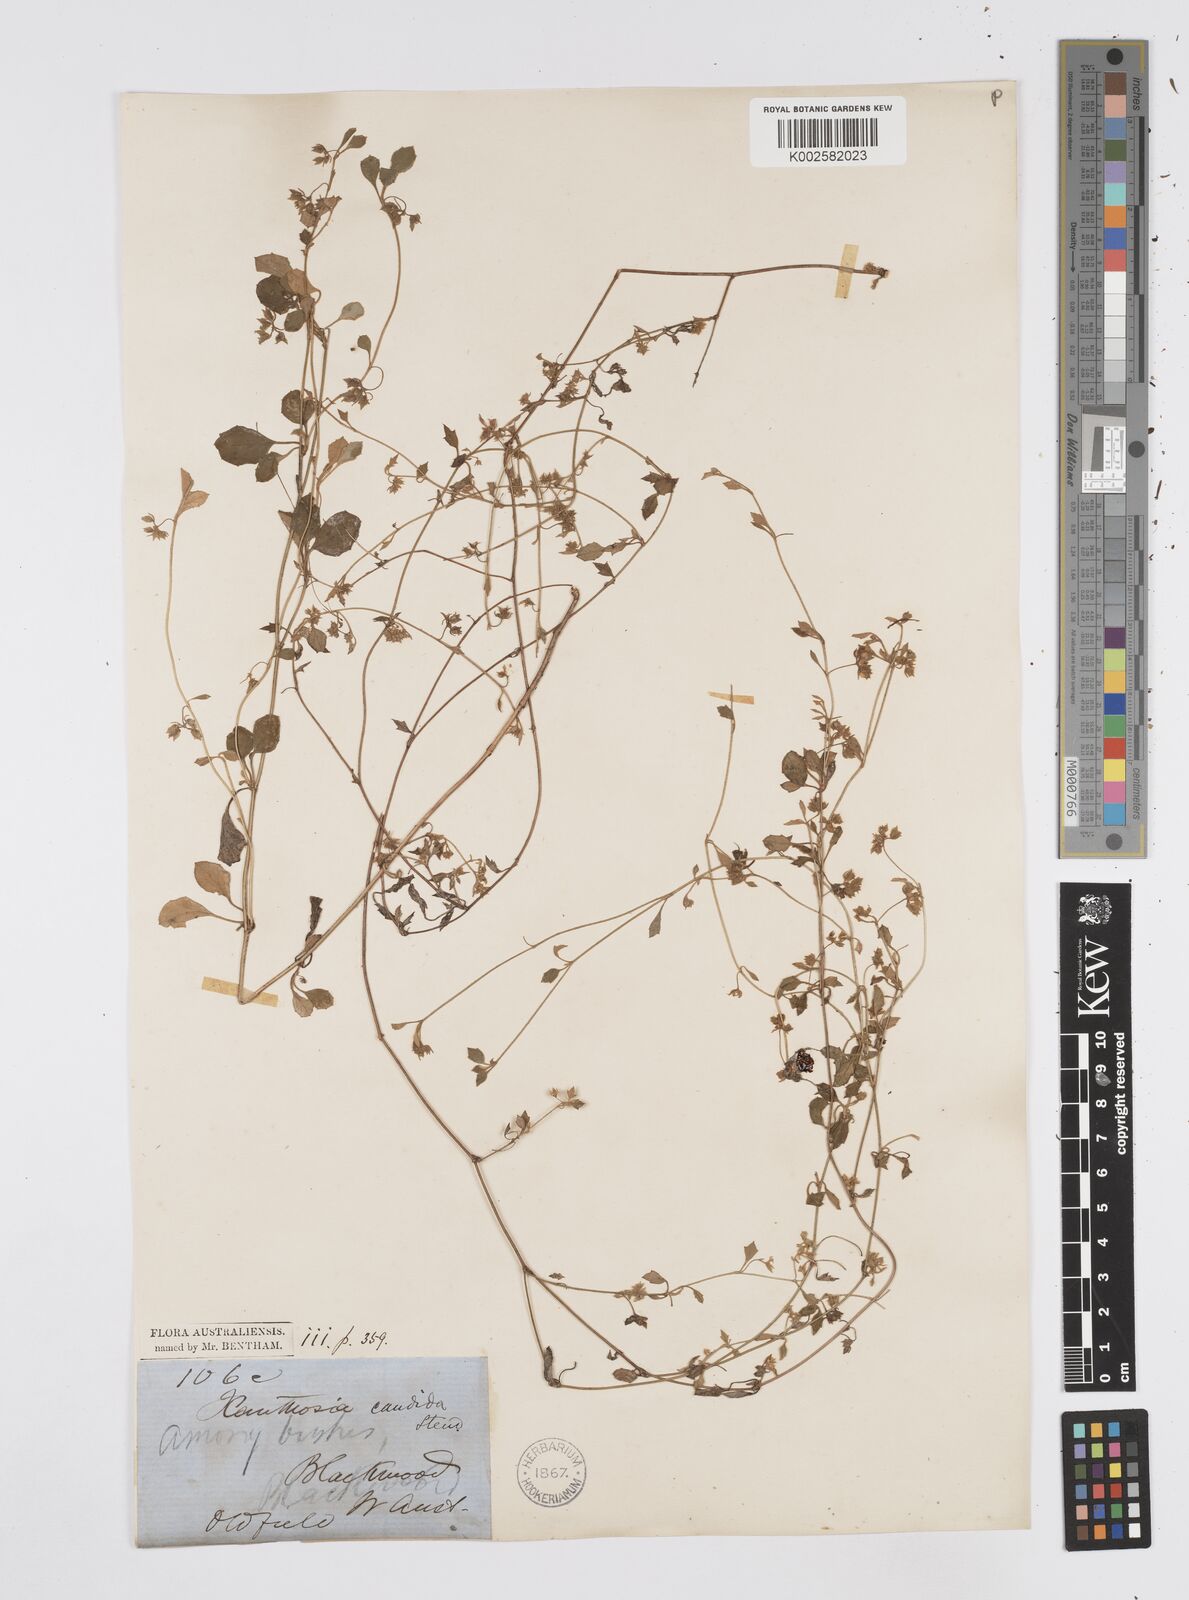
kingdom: Plantae
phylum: Tracheophyta
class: Magnoliopsida
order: Apiales
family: Apiaceae
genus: Xanthosia
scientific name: Xanthosia candida
